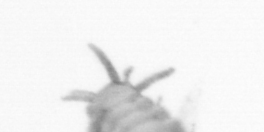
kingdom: Chromista
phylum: Ochrophyta
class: Bacillariophyceae
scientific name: Bacillariophyceae
